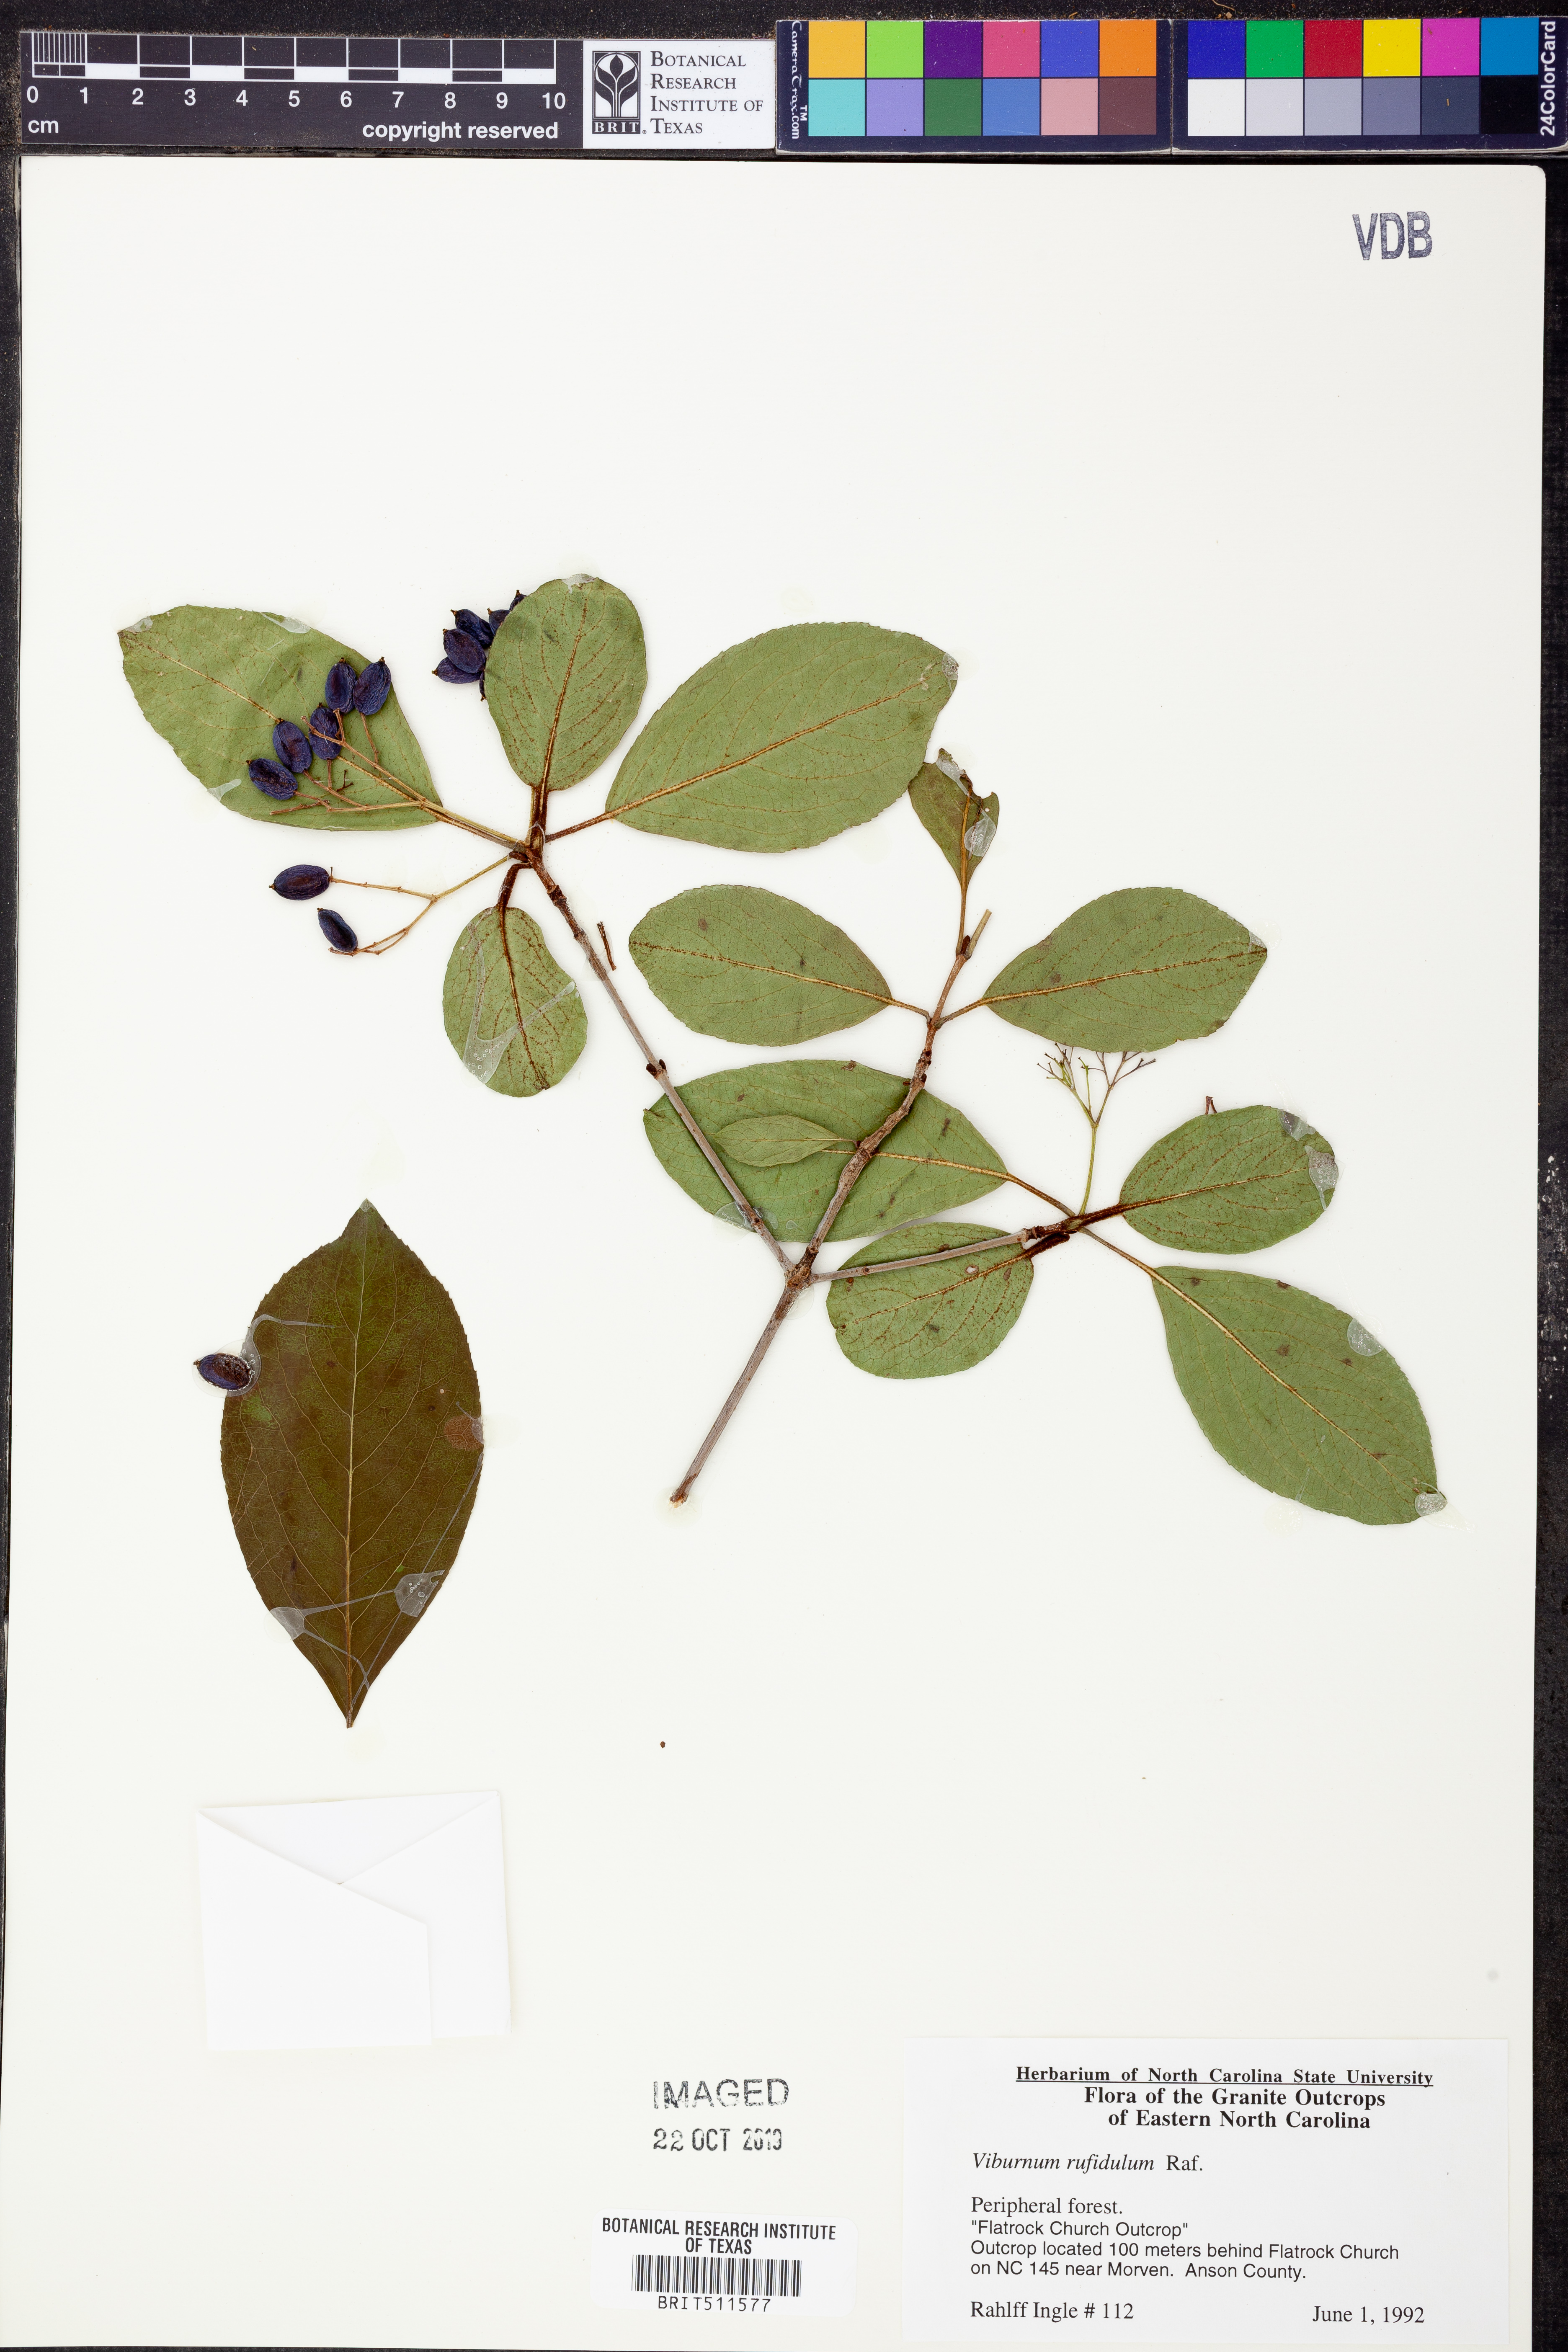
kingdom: Plantae
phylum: Tracheophyta
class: Magnoliopsida
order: Dipsacales
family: Viburnaceae
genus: Viburnum
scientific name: Viburnum rufidulum
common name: Blue haw
